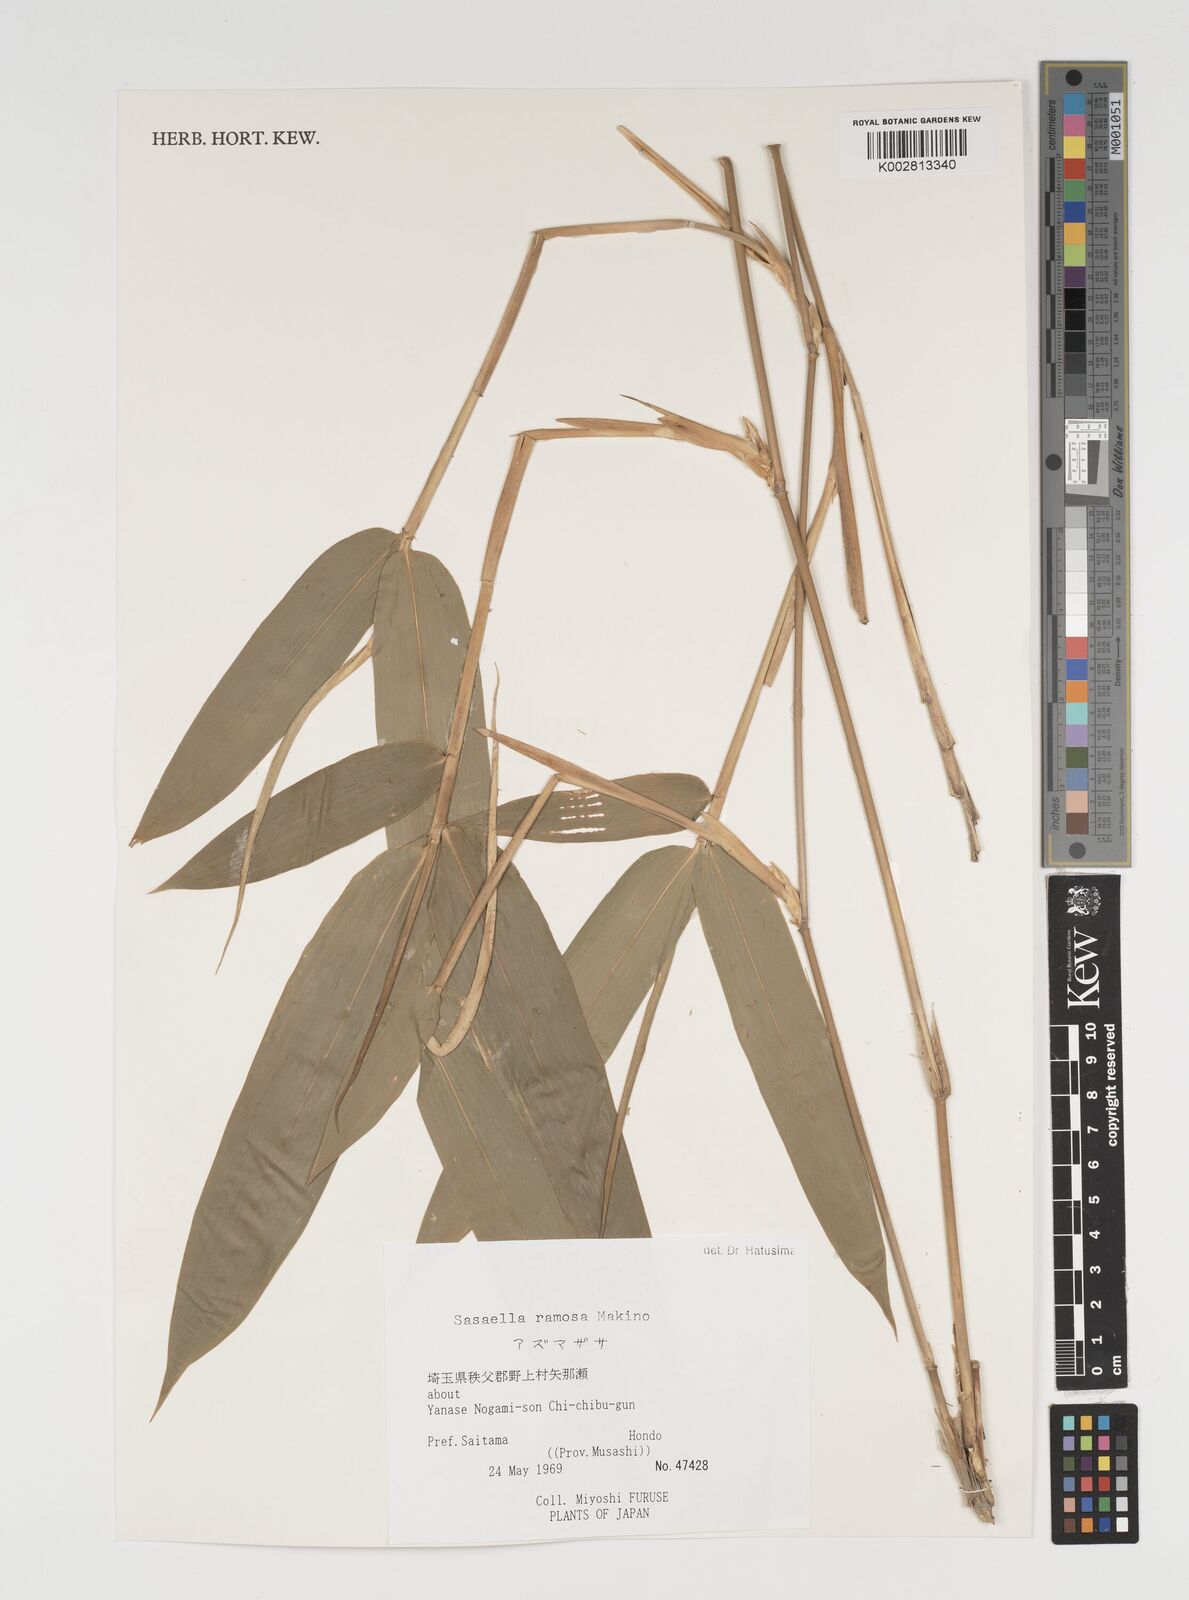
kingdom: Plantae
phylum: Tracheophyta
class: Liliopsida
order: Poales
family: Poaceae
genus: Sasaella
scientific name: Sasaella ramosa
